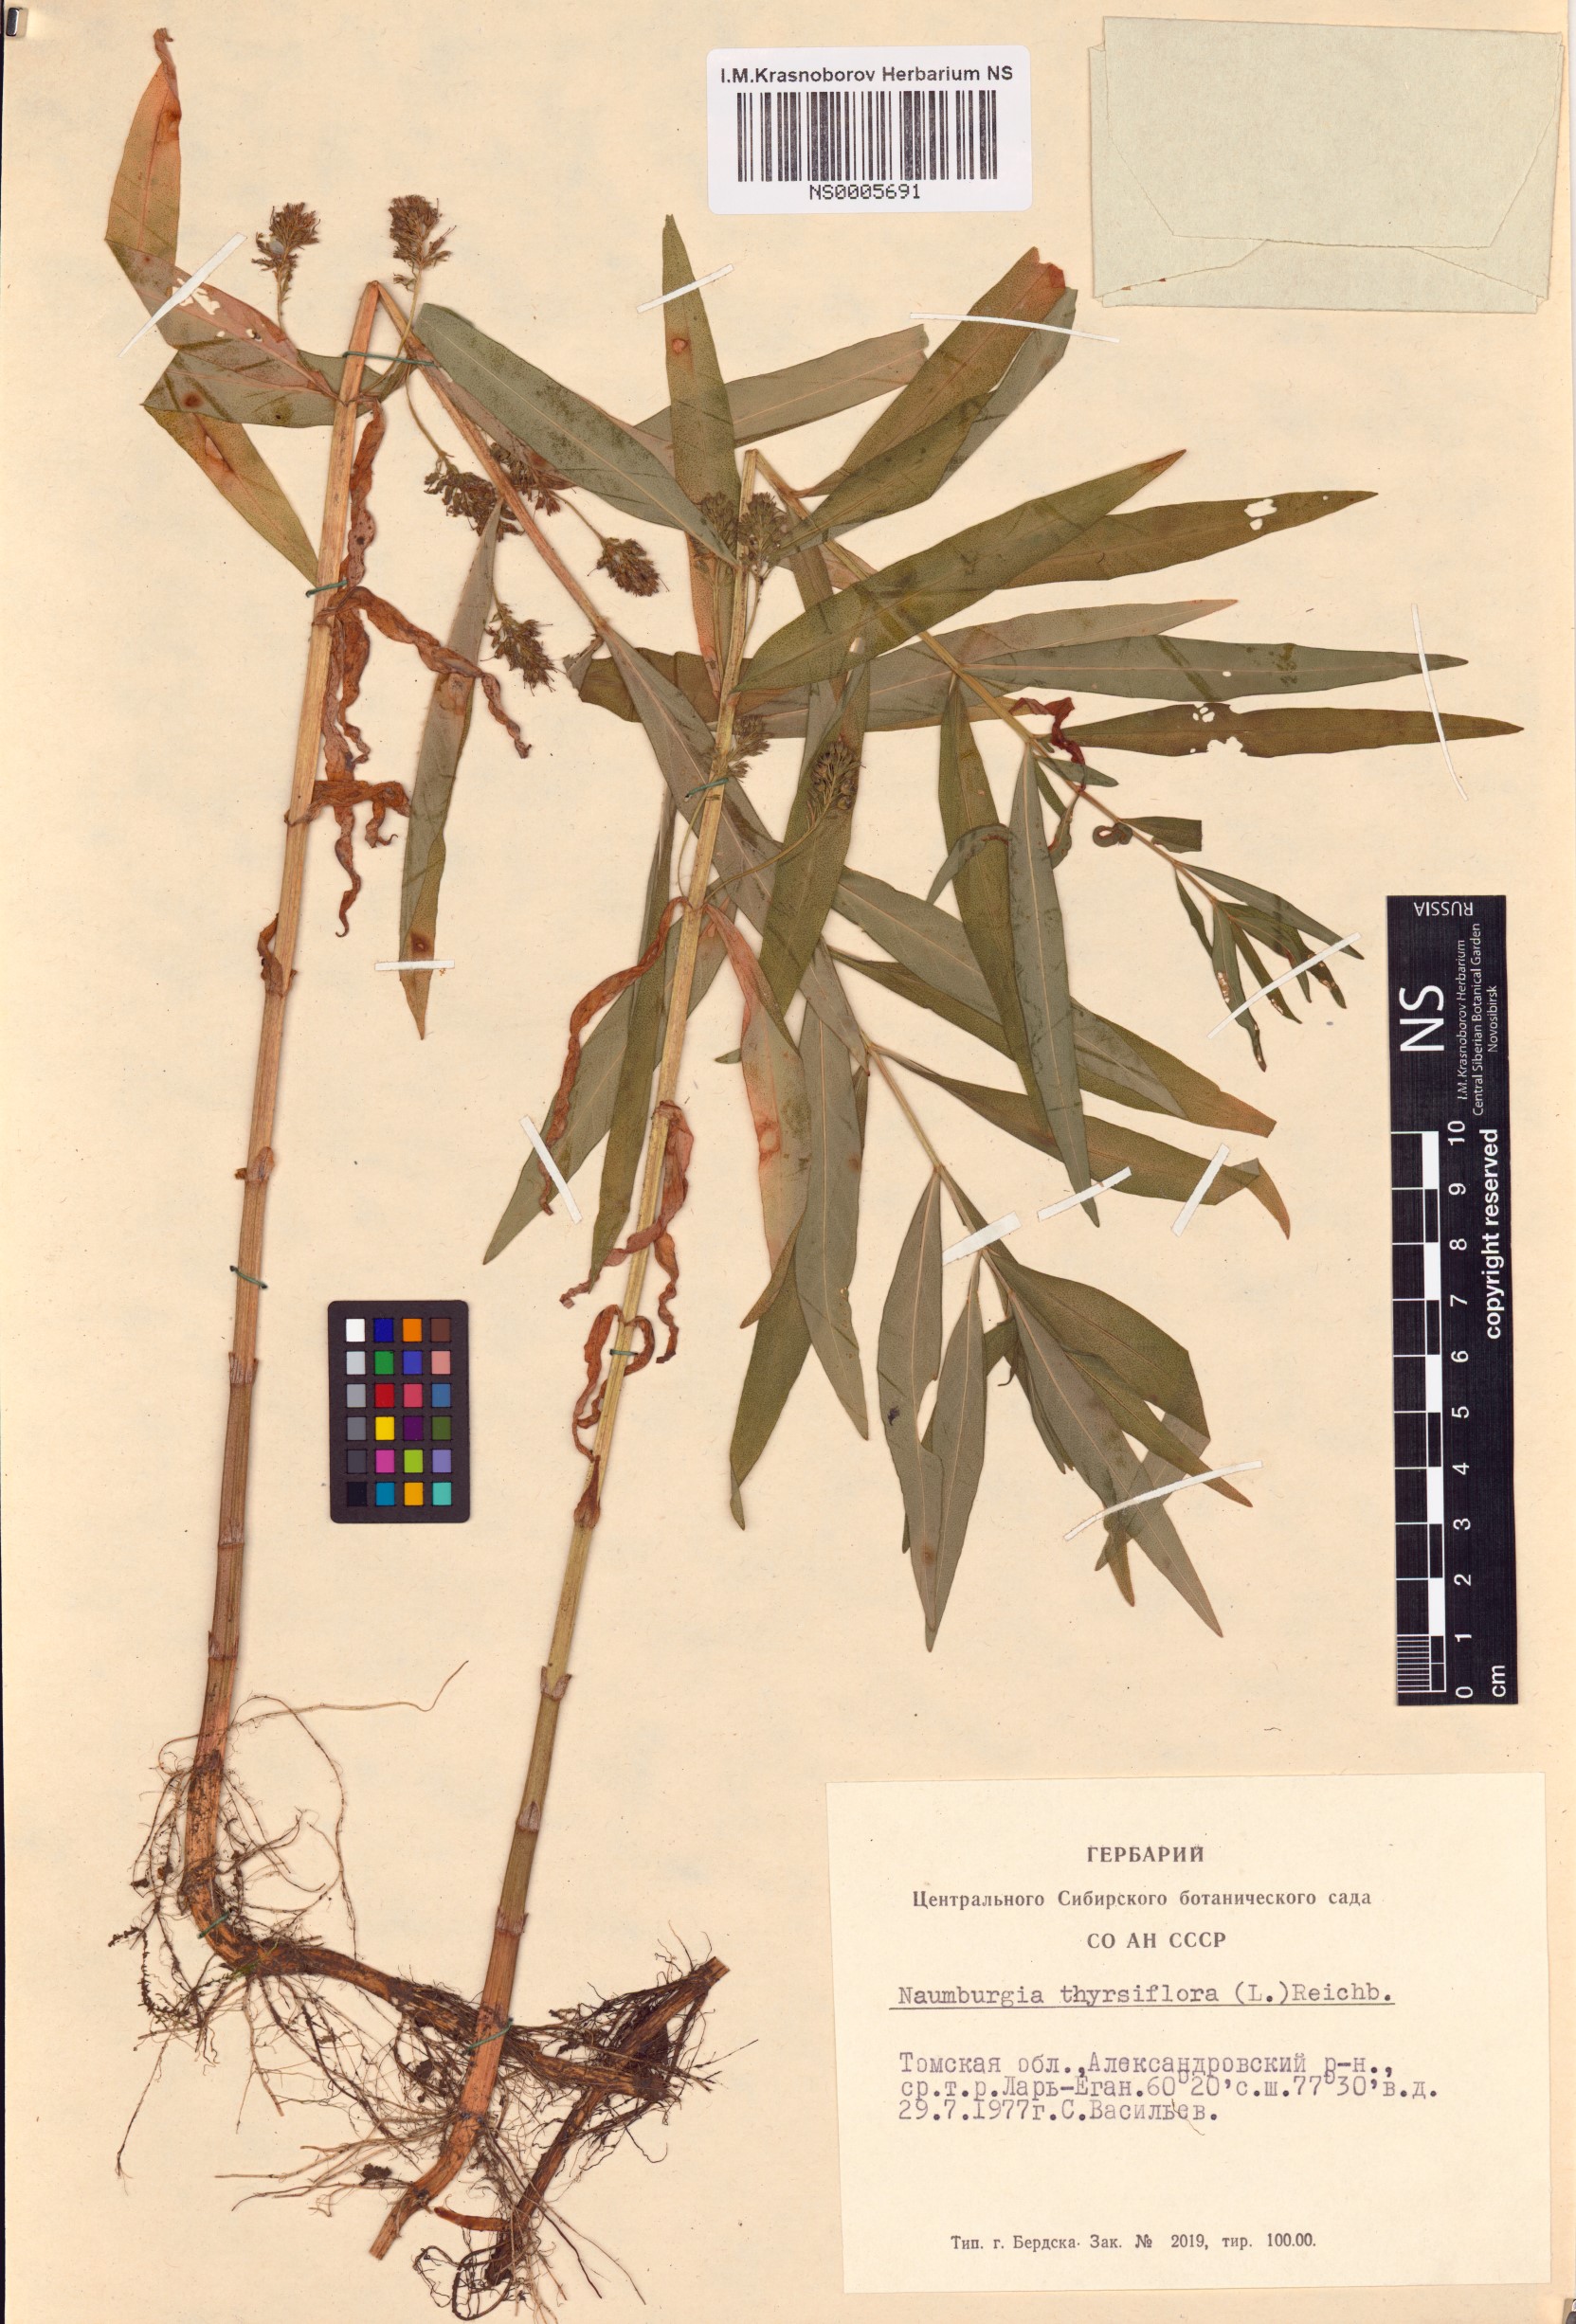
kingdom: Plantae
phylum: Tracheophyta
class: Magnoliopsida
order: Ericales
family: Primulaceae
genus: Lysimachia
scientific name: Lysimachia thyrsiflora
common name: Tufted loosestrife
